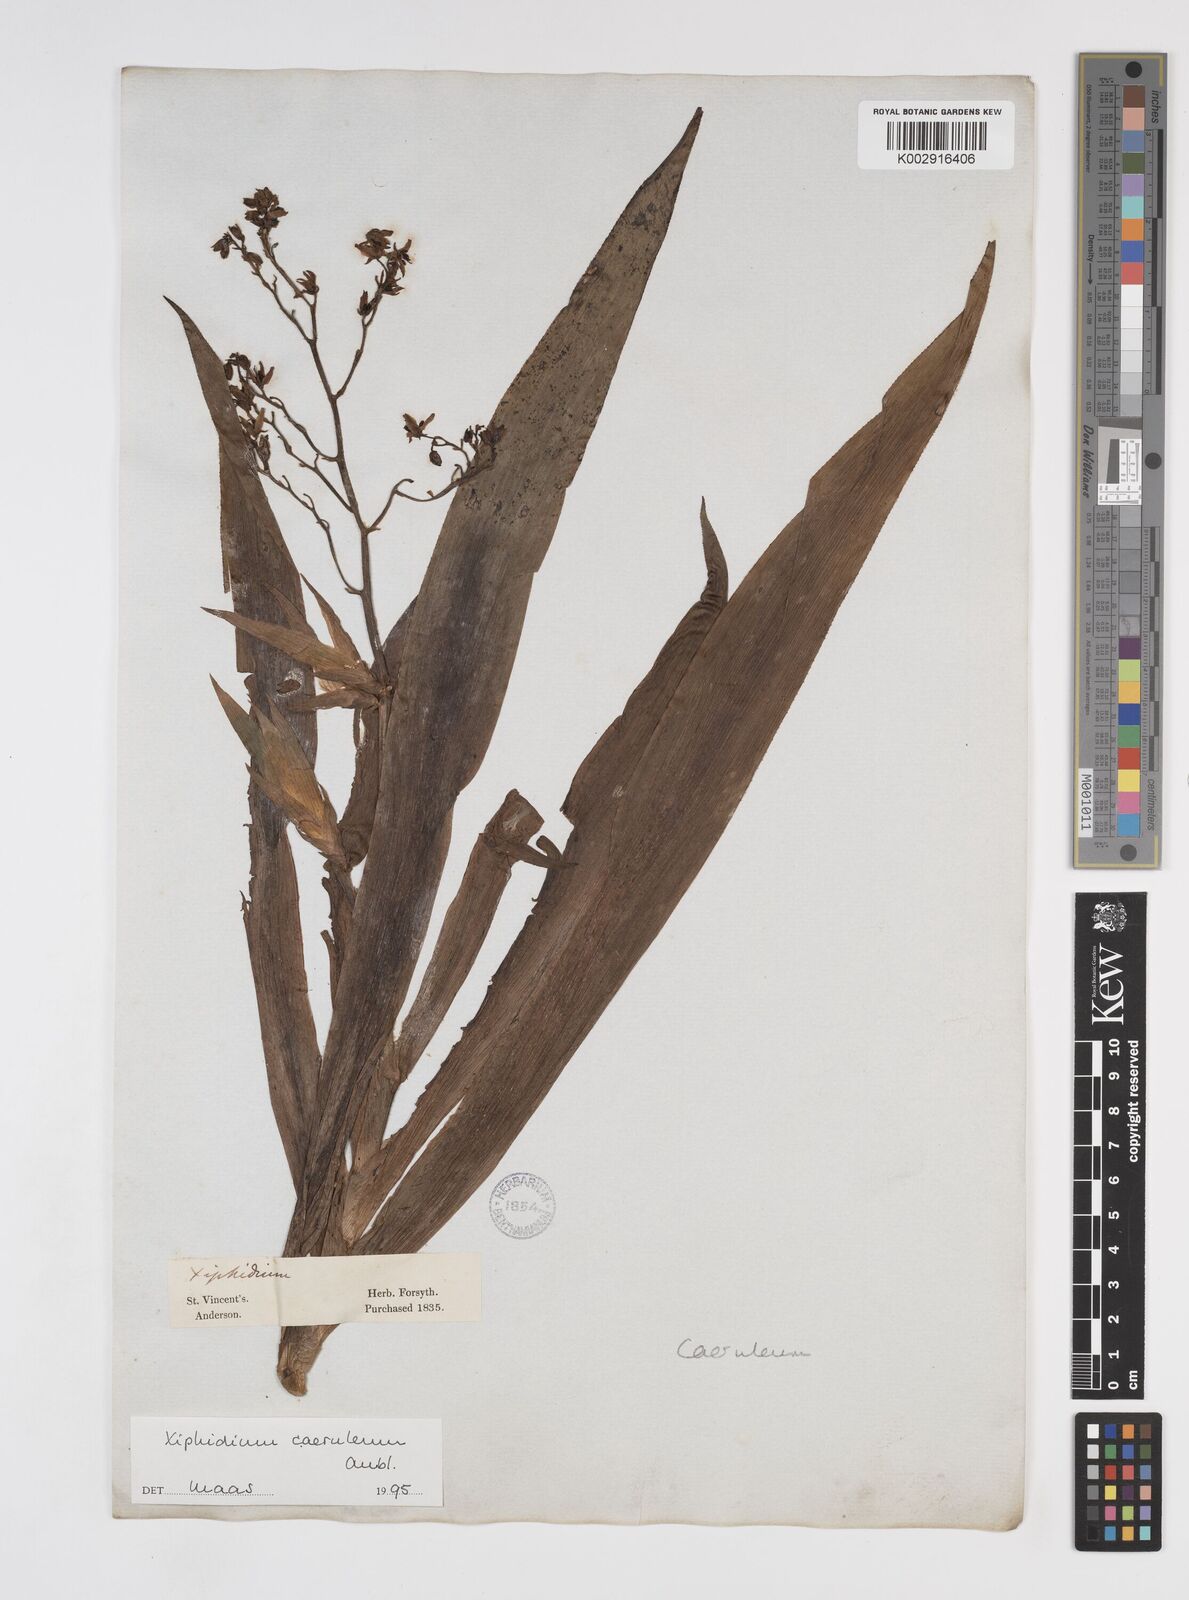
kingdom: Plantae
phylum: Tracheophyta
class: Liliopsida
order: Commelinales
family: Haemodoraceae
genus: Xiphidium
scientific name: Xiphidium caeruleum
